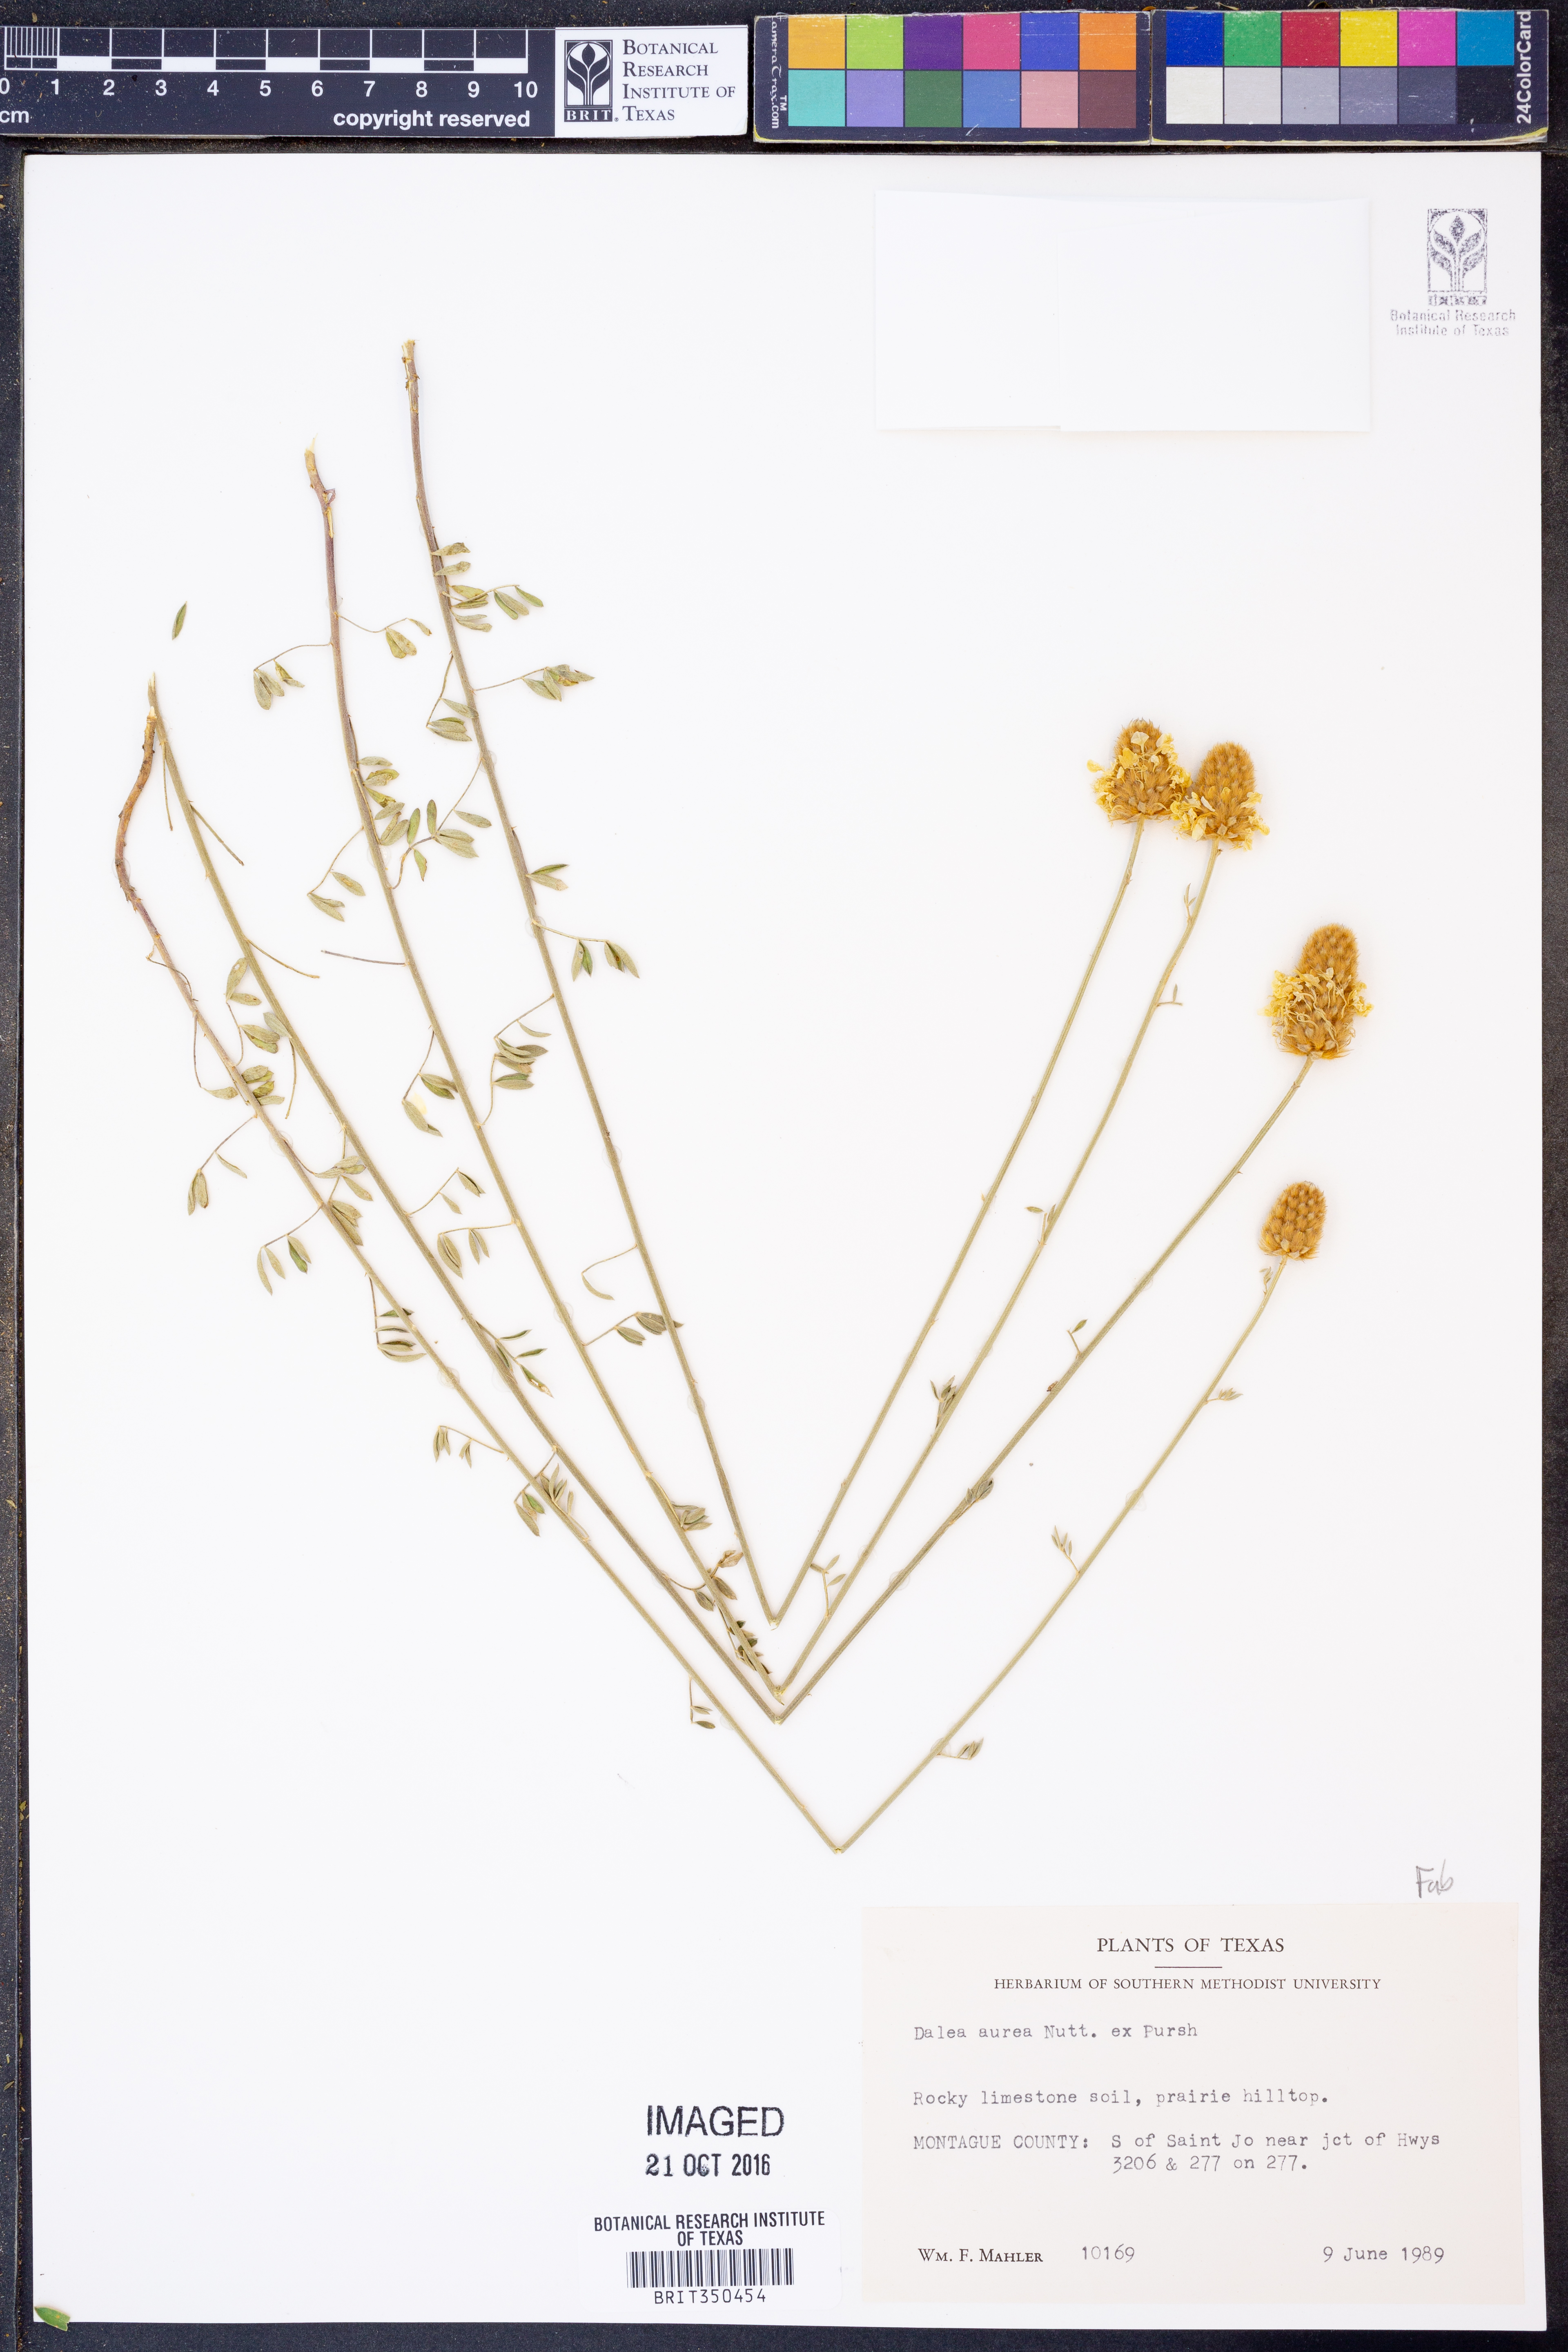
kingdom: Plantae
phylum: Tracheophyta
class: Magnoliopsida
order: Fabales
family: Fabaceae
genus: Dalea
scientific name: Dalea aurea
